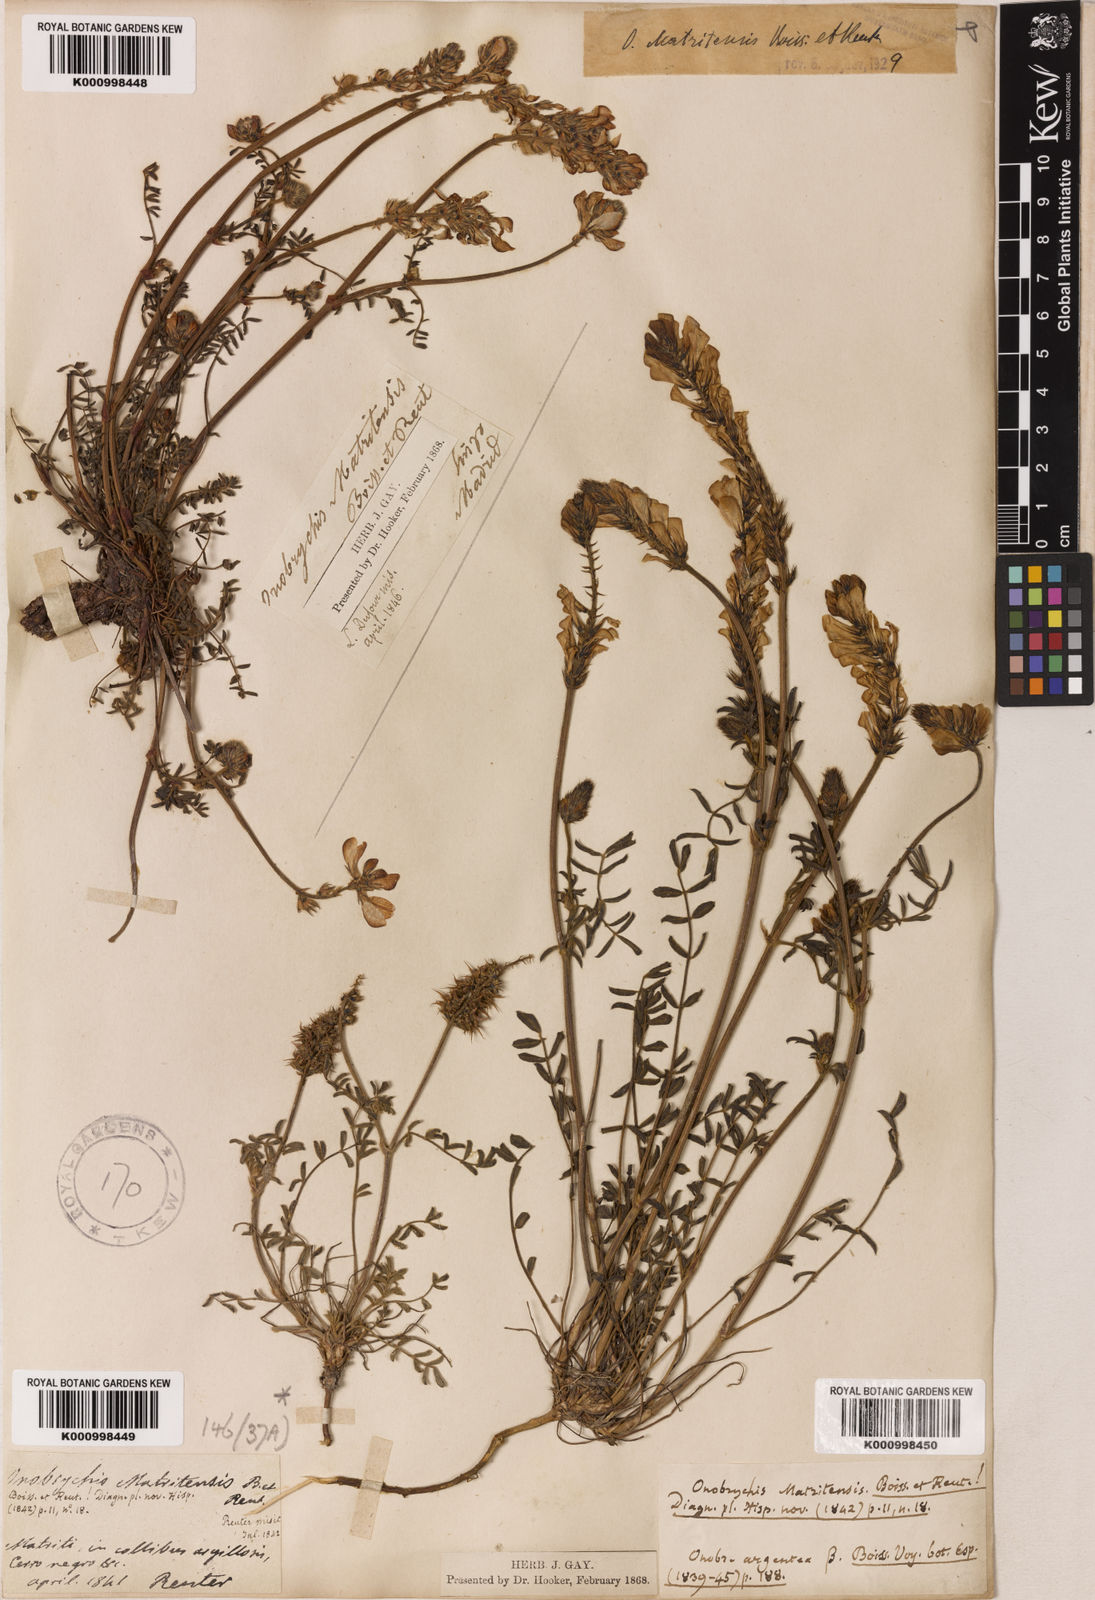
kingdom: Plantae
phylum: Tracheophyta
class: Magnoliopsida
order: Fabales
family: Fabaceae
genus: Onobrychis
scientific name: Onobrychis humilis
